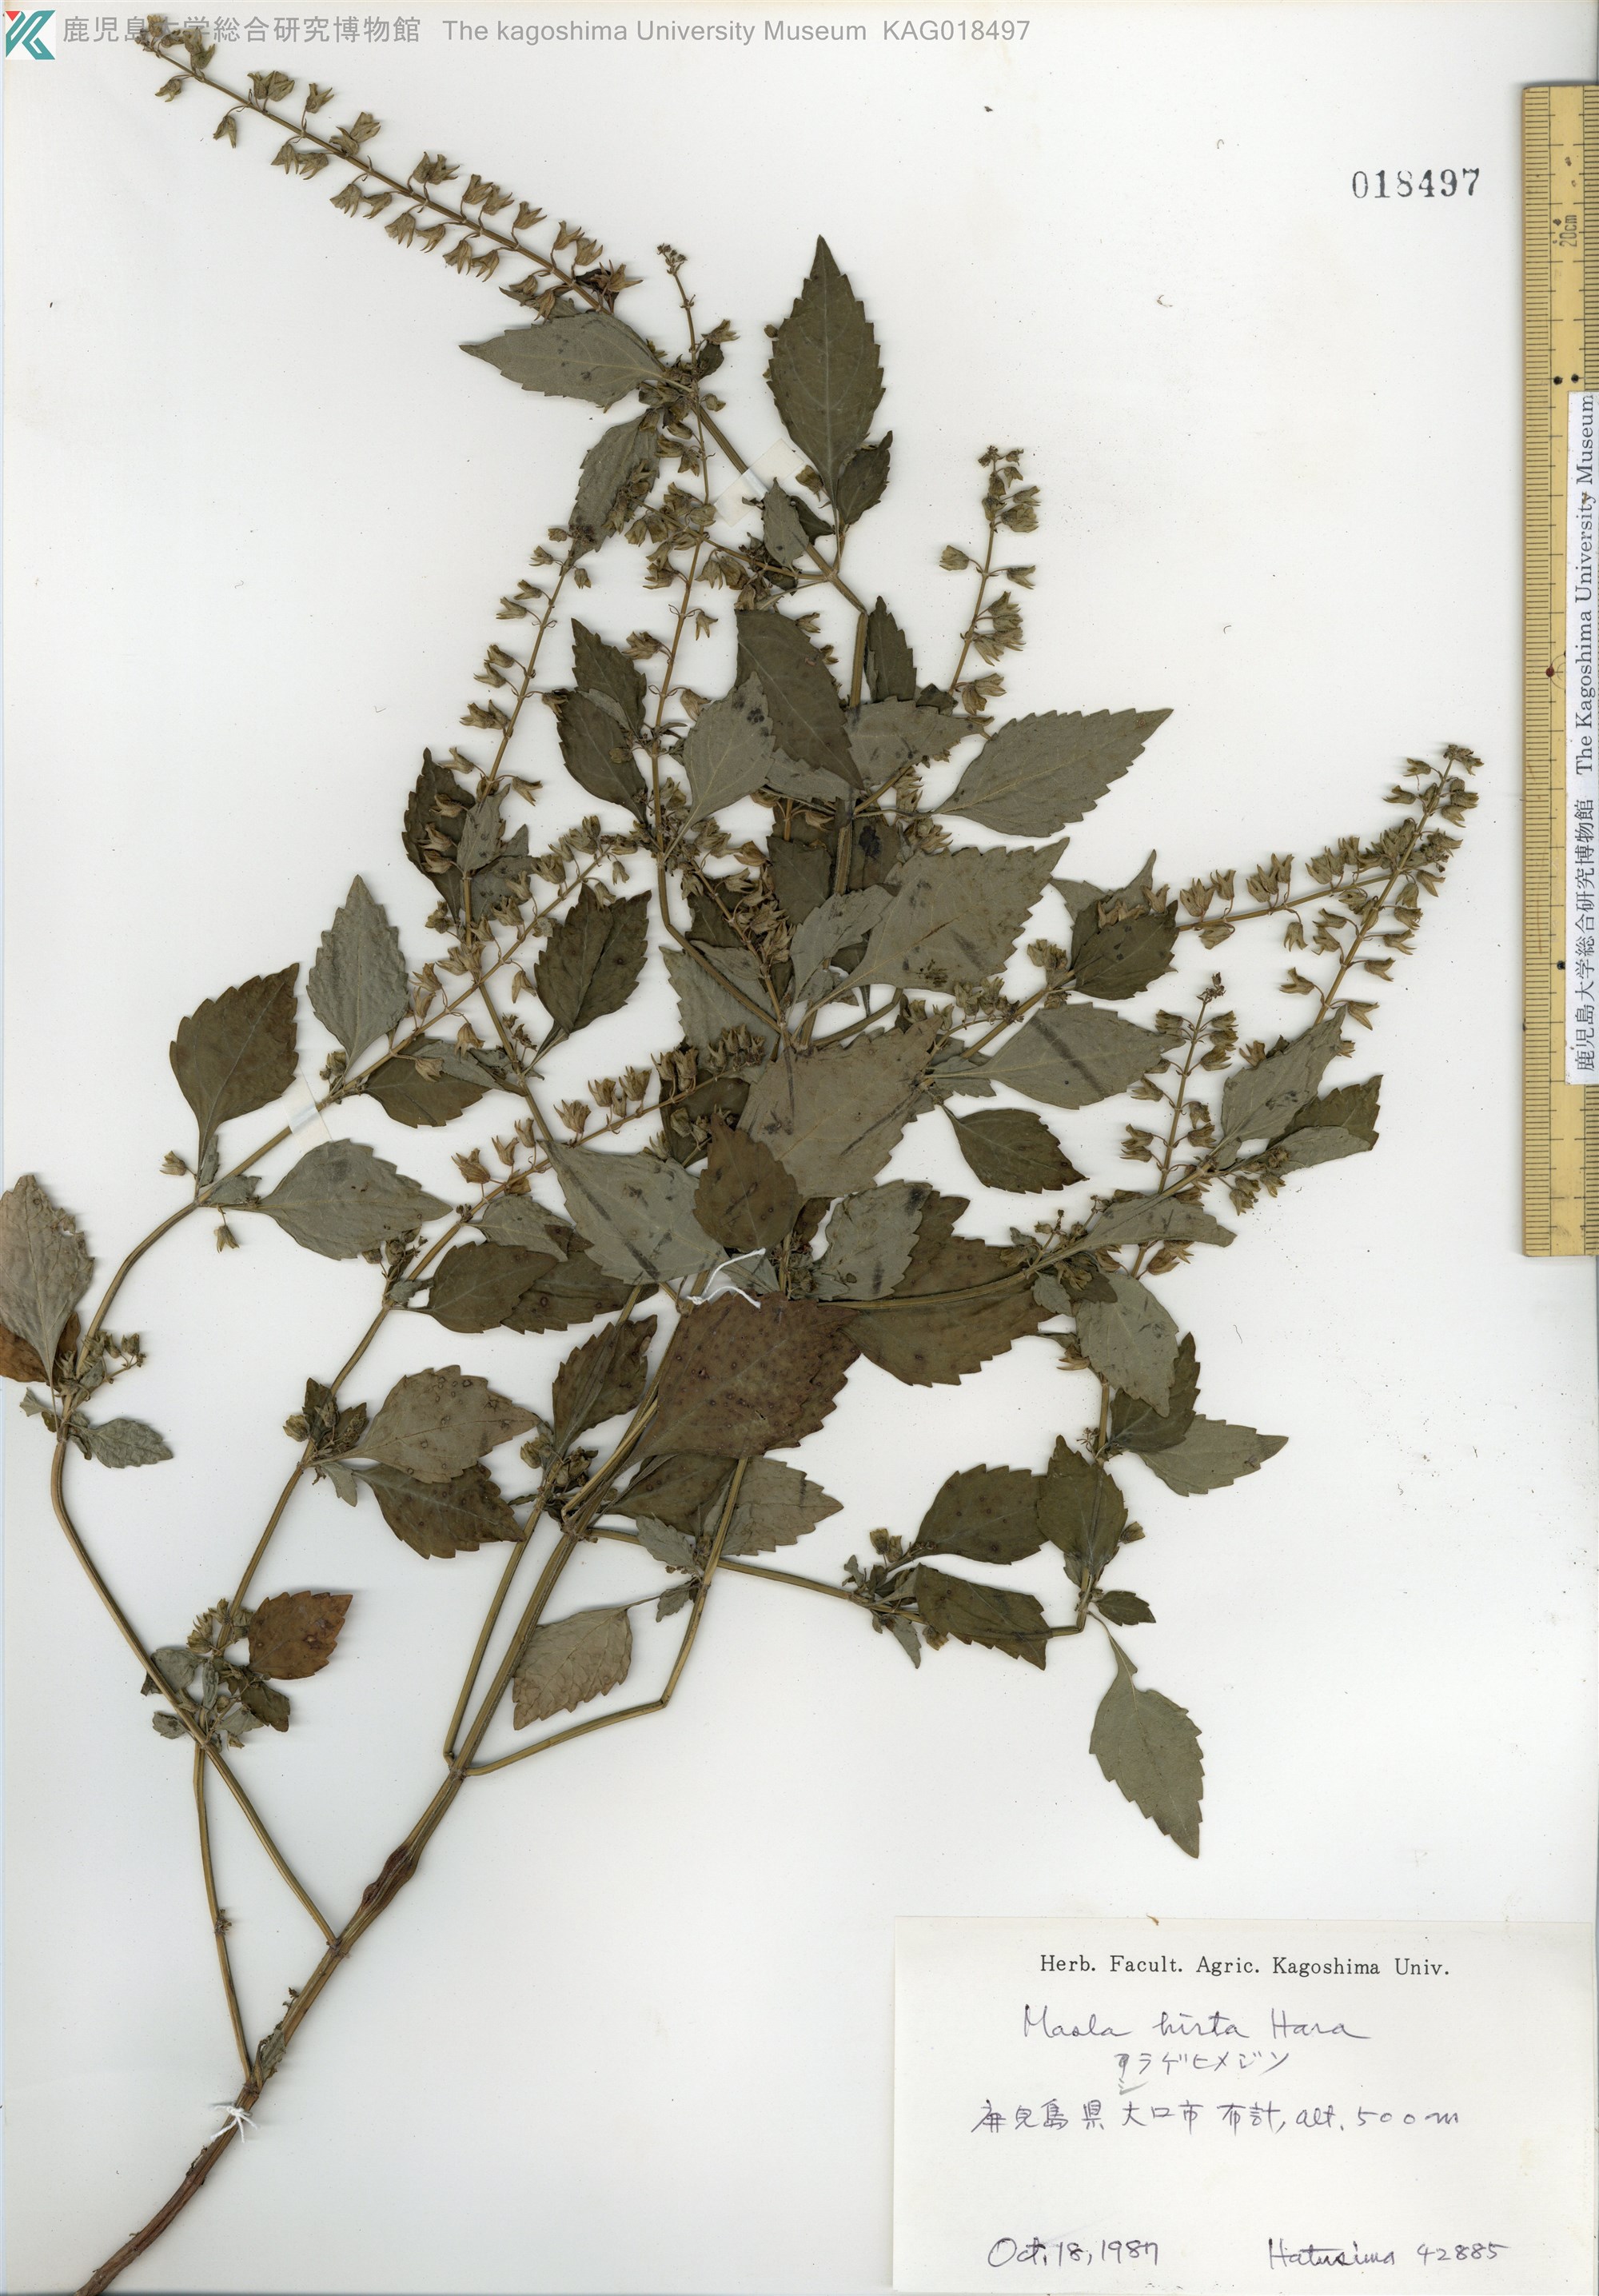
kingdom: Plantae
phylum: Tracheophyta
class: Magnoliopsida
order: Lamiales
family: Lamiaceae
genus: Mosla
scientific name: Mosla dianthera
